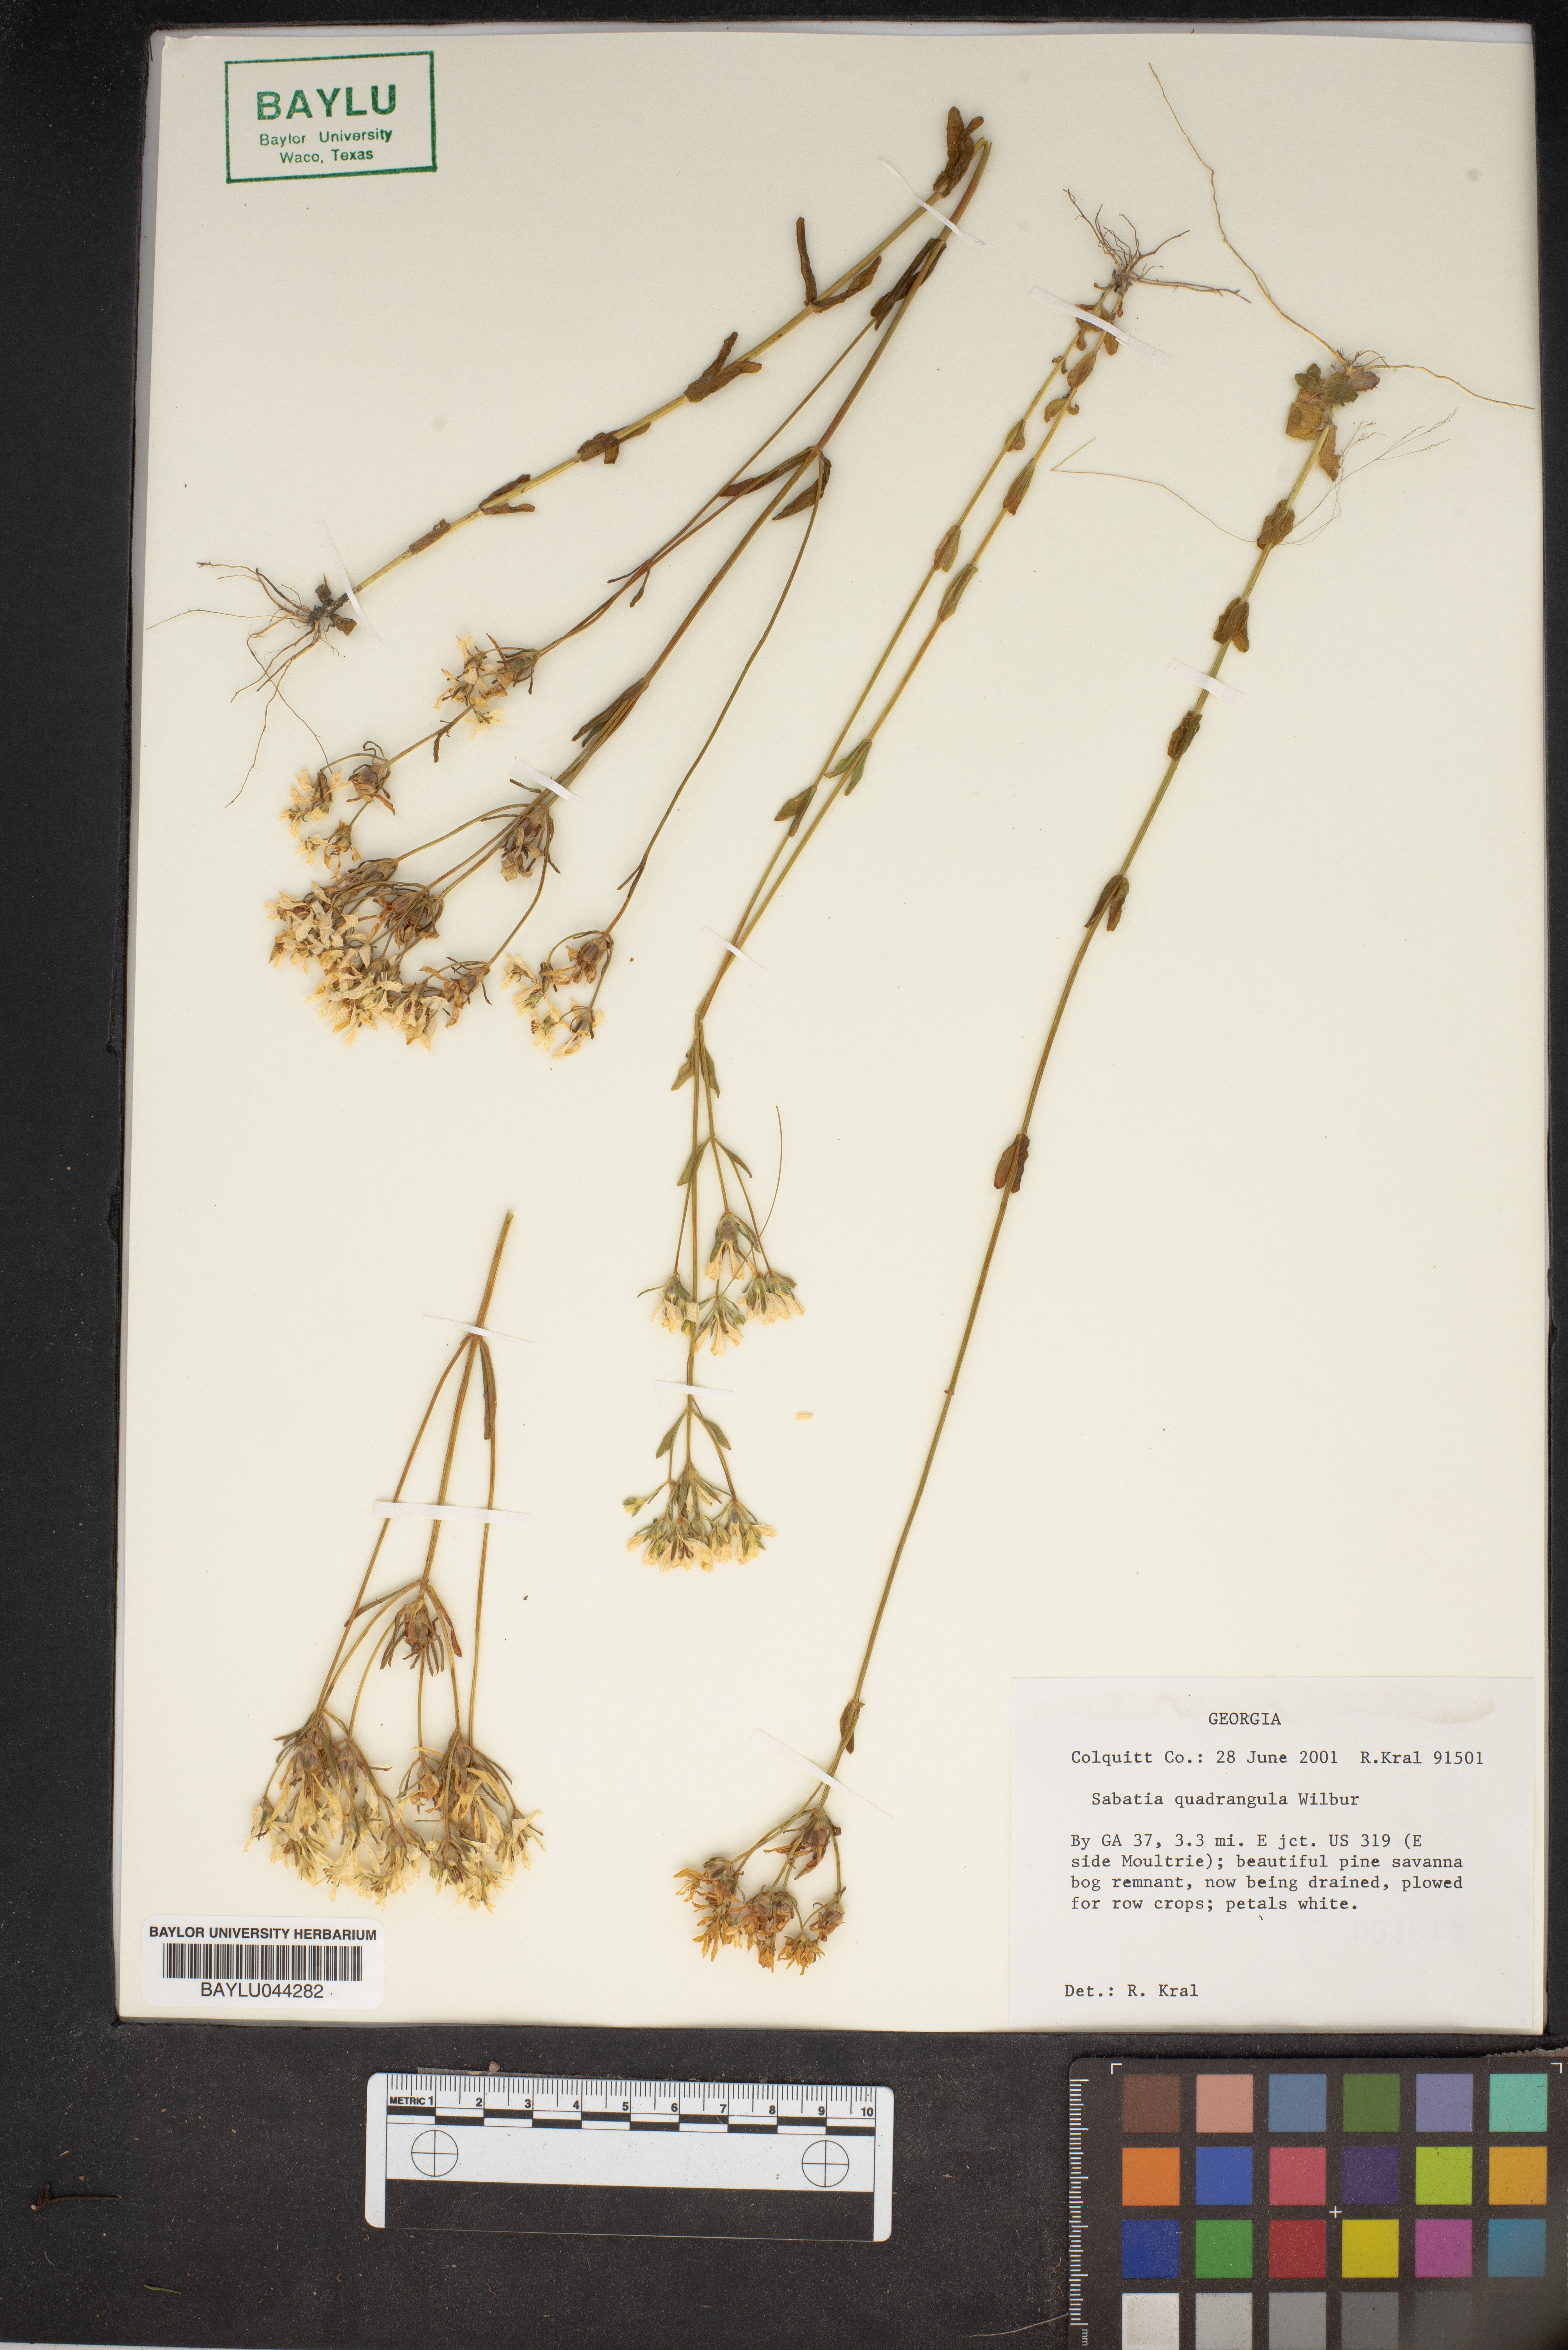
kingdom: Plantae
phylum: Tracheophyta
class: Magnoliopsida
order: Gentianales
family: Gentianaceae
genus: Sabatia
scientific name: Sabatia quadrangula
